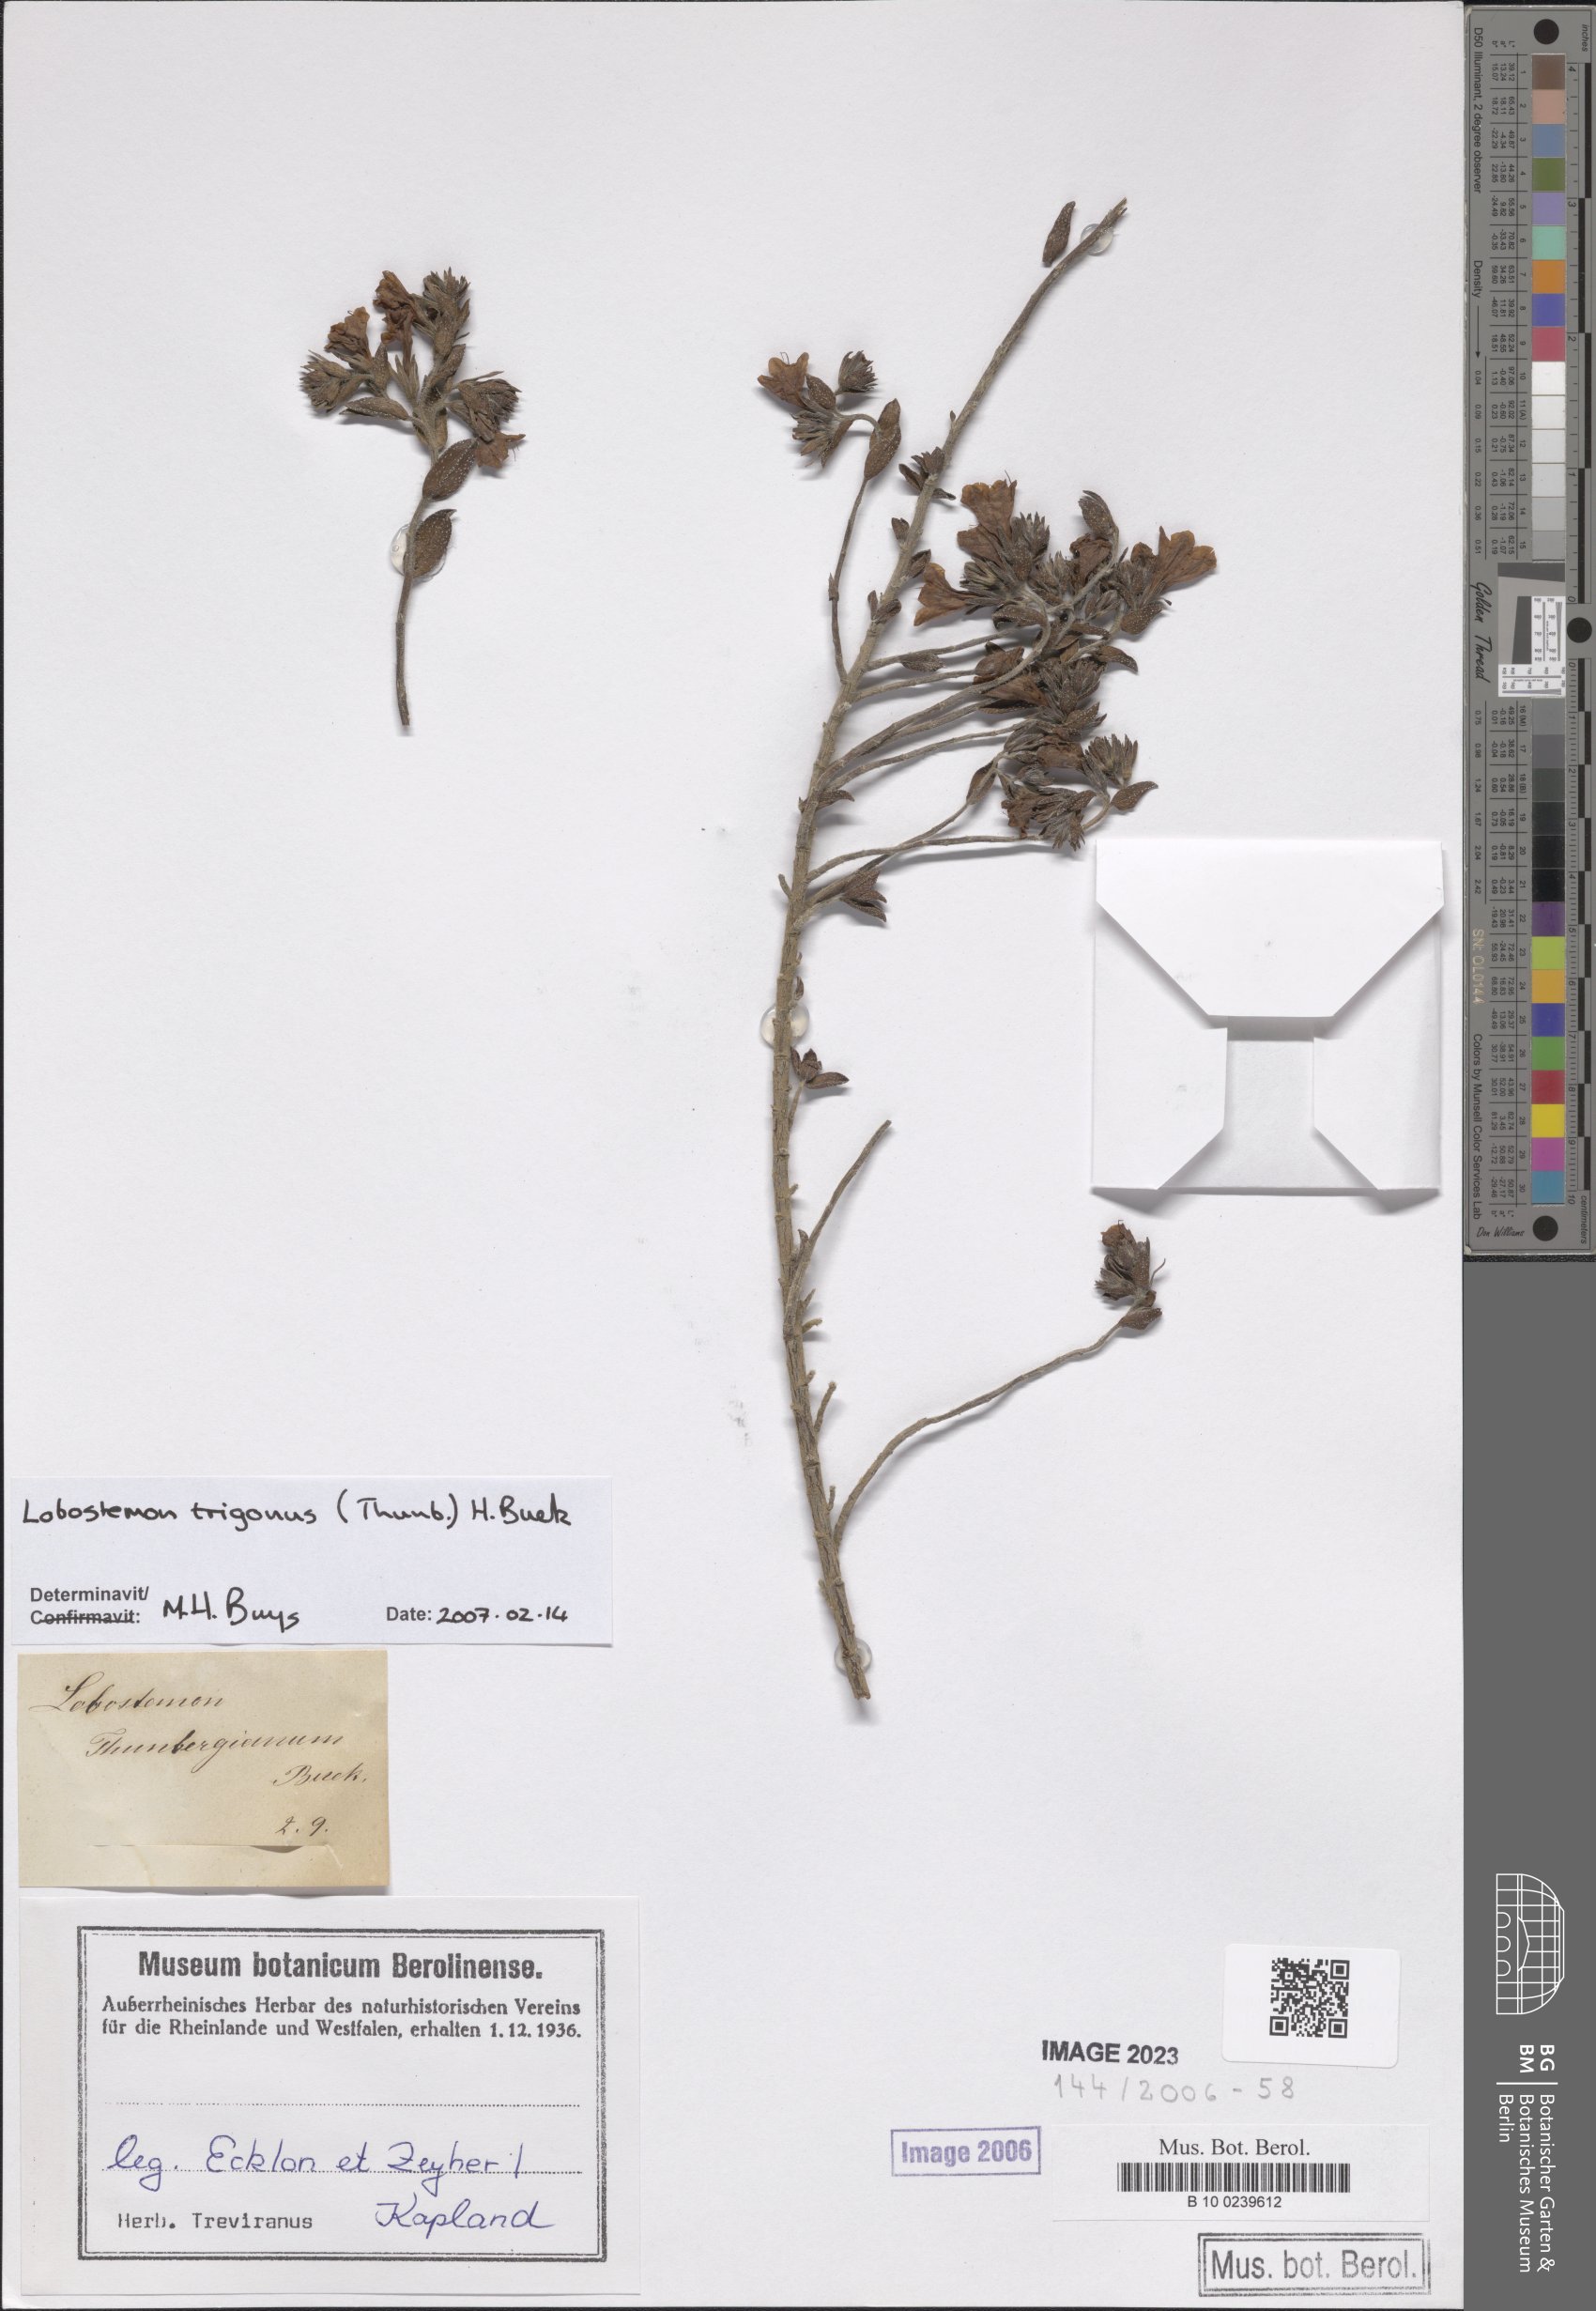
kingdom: Plantae
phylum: Tracheophyta
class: Magnoliopsida
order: Boraginales
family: Boraginaceae
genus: Lobostemon
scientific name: Lobostemon trigonus
